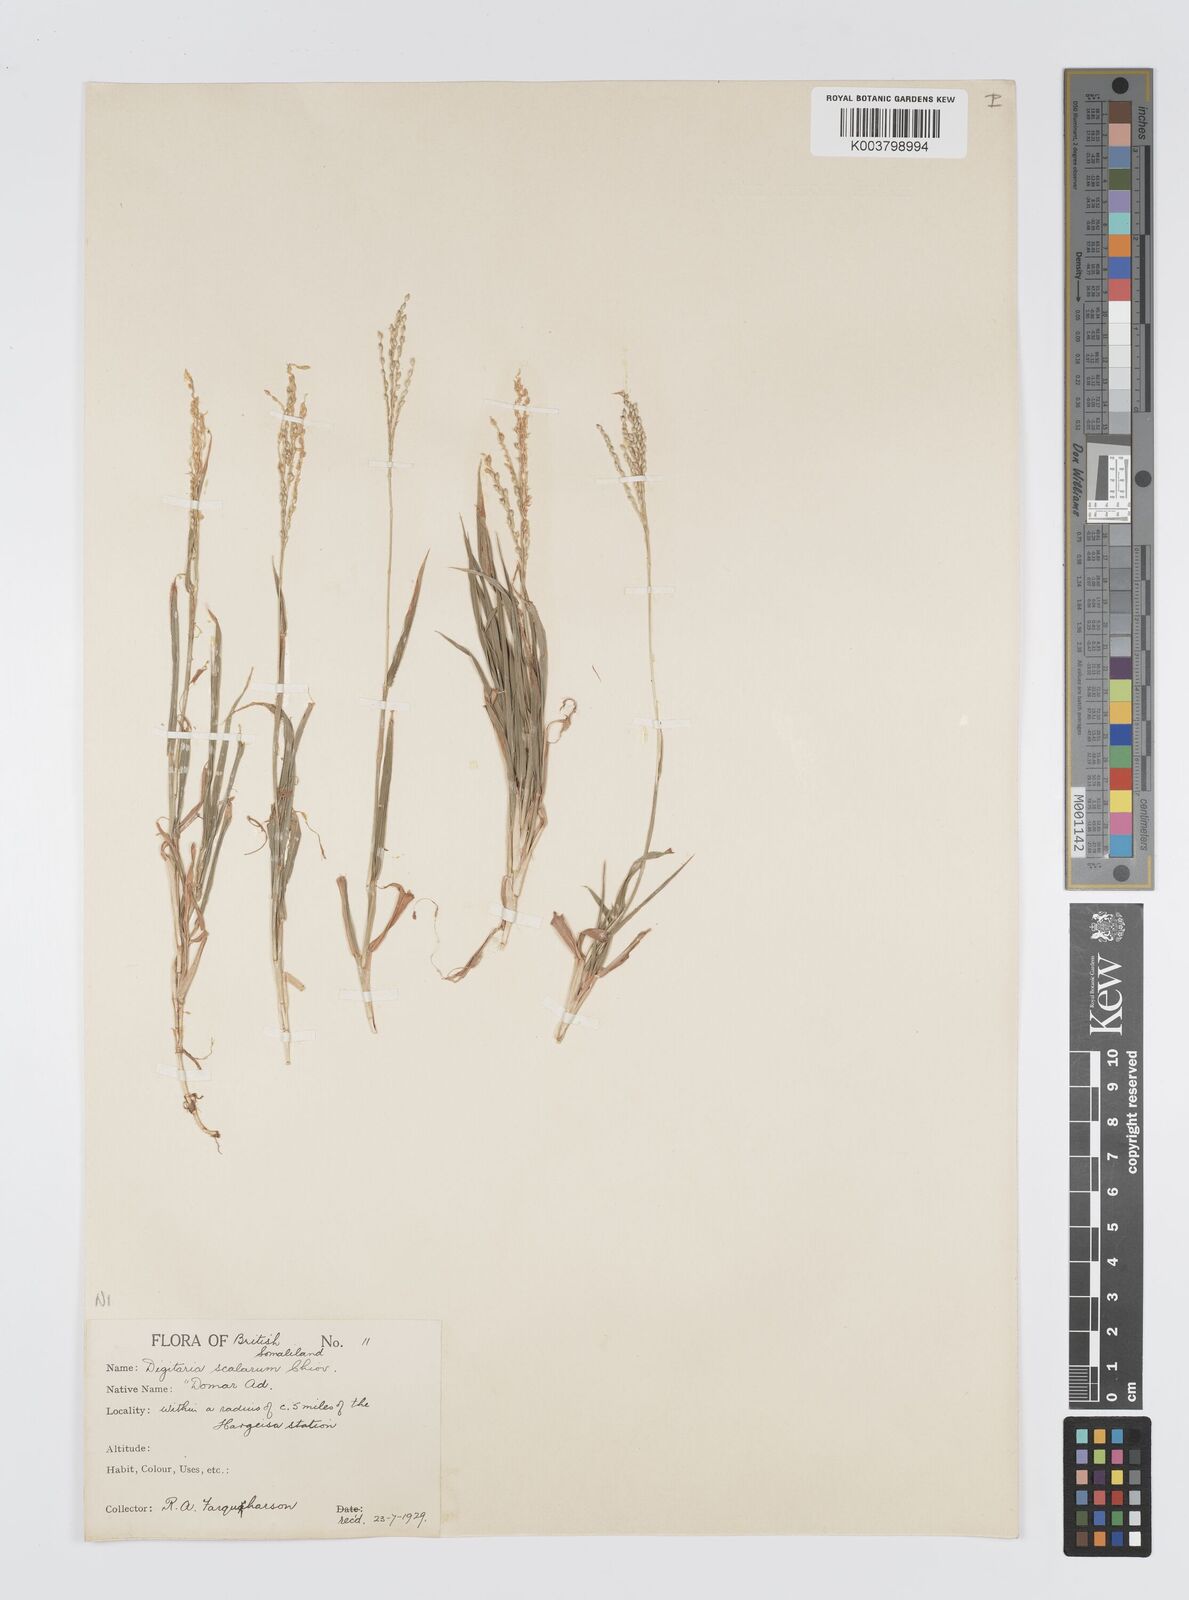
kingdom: Plantae
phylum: Tracheophyta
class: Liliopsida
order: Poales
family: Poaceae
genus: Digitaria
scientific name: Digitaria abyssinica
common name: African couchgrass
